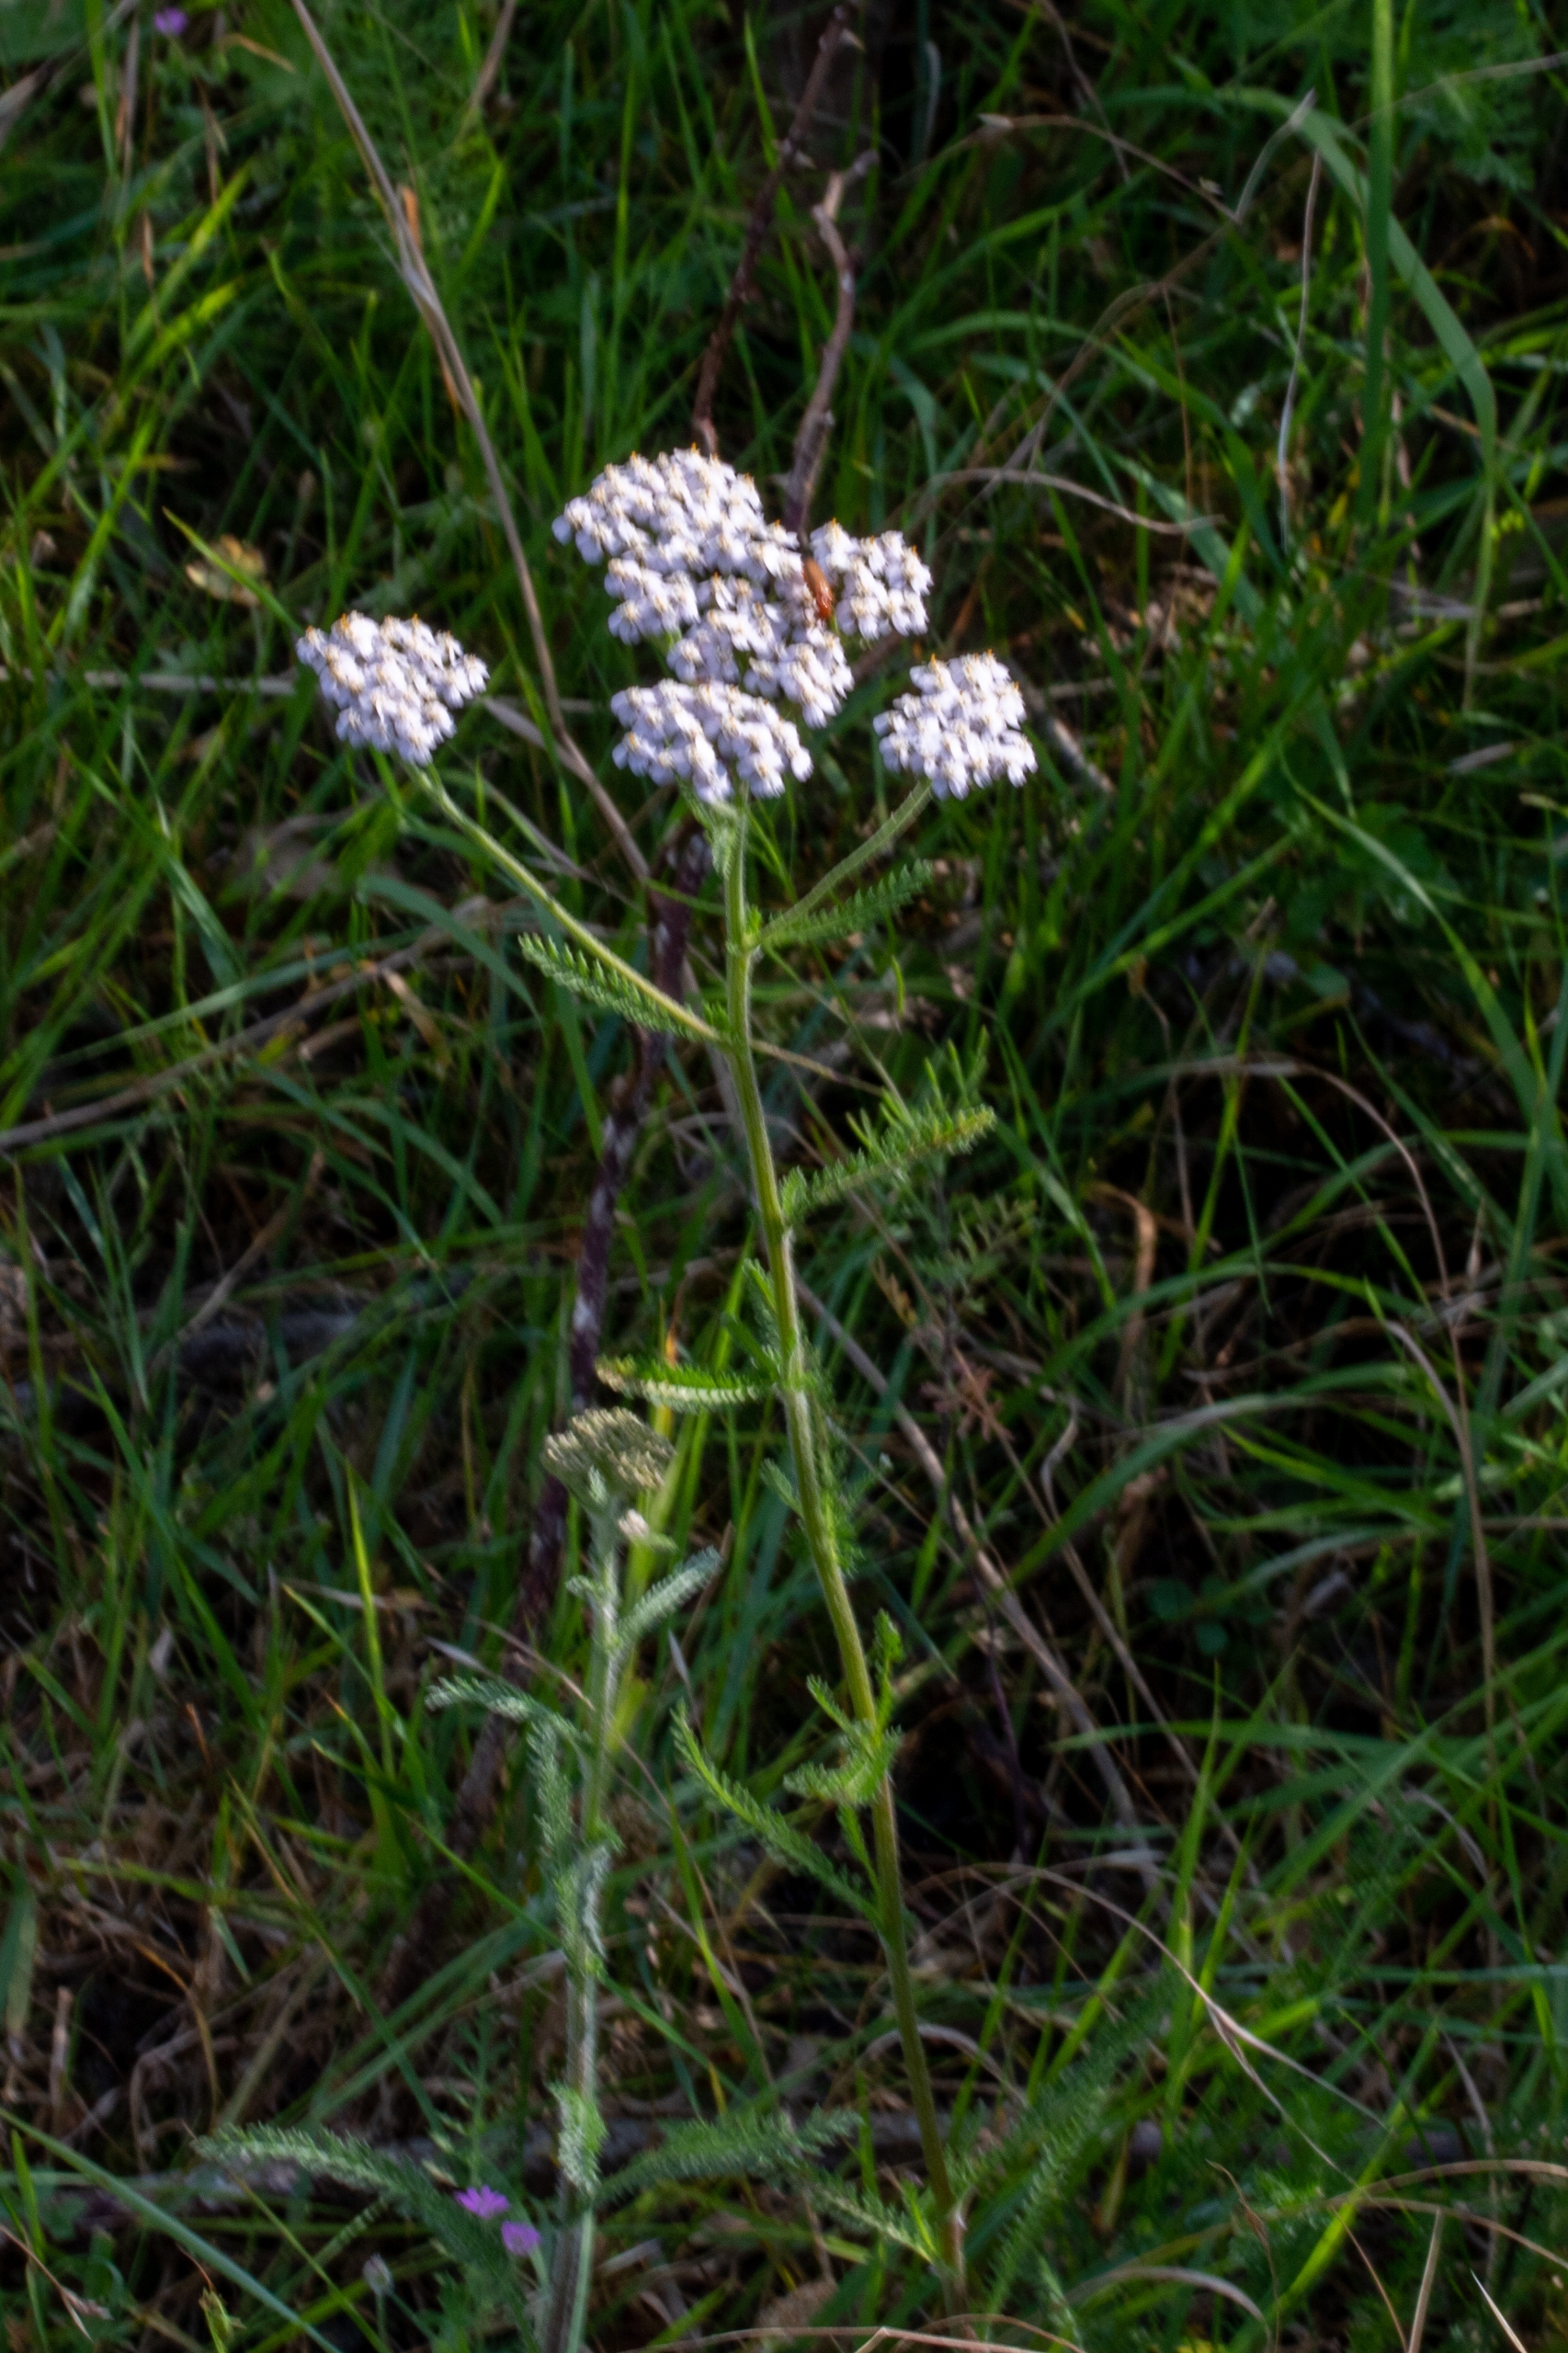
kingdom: Plantae
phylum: Tracheophyta
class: Magnoliopsida
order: Asterales
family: Asteraceae
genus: Achillea
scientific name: Achillea millefolium
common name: Almindelig røllike
